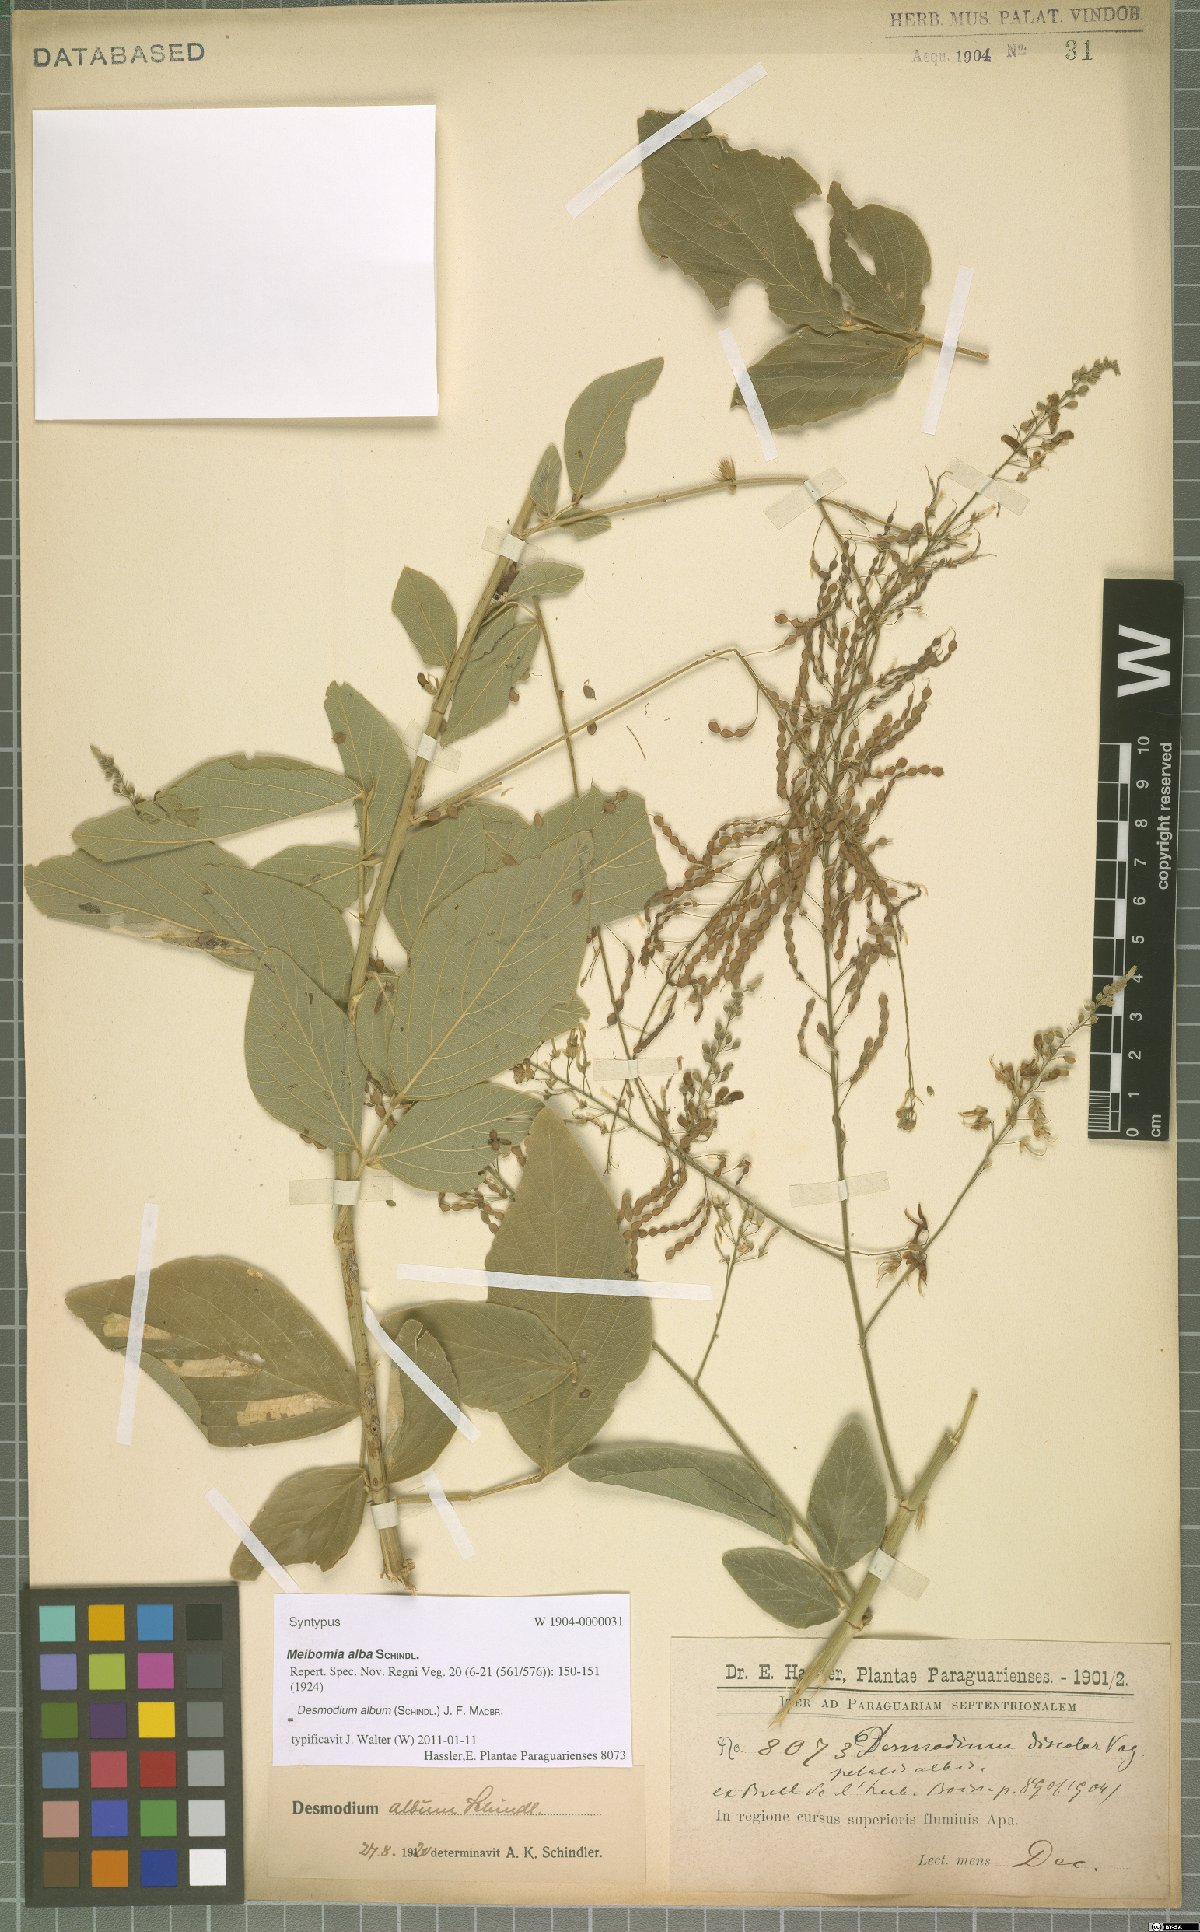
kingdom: Plantae
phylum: Tracheophyta
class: Magnoliopsida
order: Fabales
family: Fabaceae
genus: Desmodium
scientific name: Desmodium album
